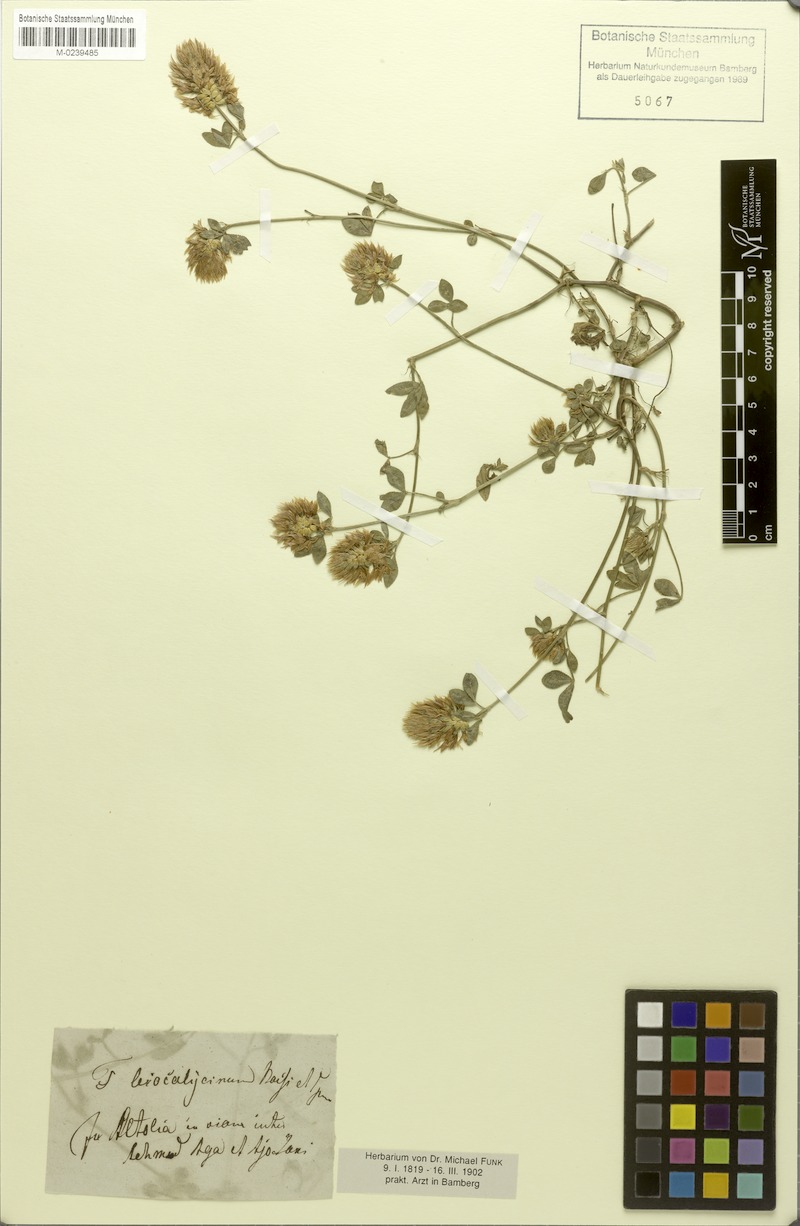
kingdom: Plantae
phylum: Tracheophyta
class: Magnoliopsida
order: Fabales
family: Fabaceae
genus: Trifolium
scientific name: Trifolium mutabile
